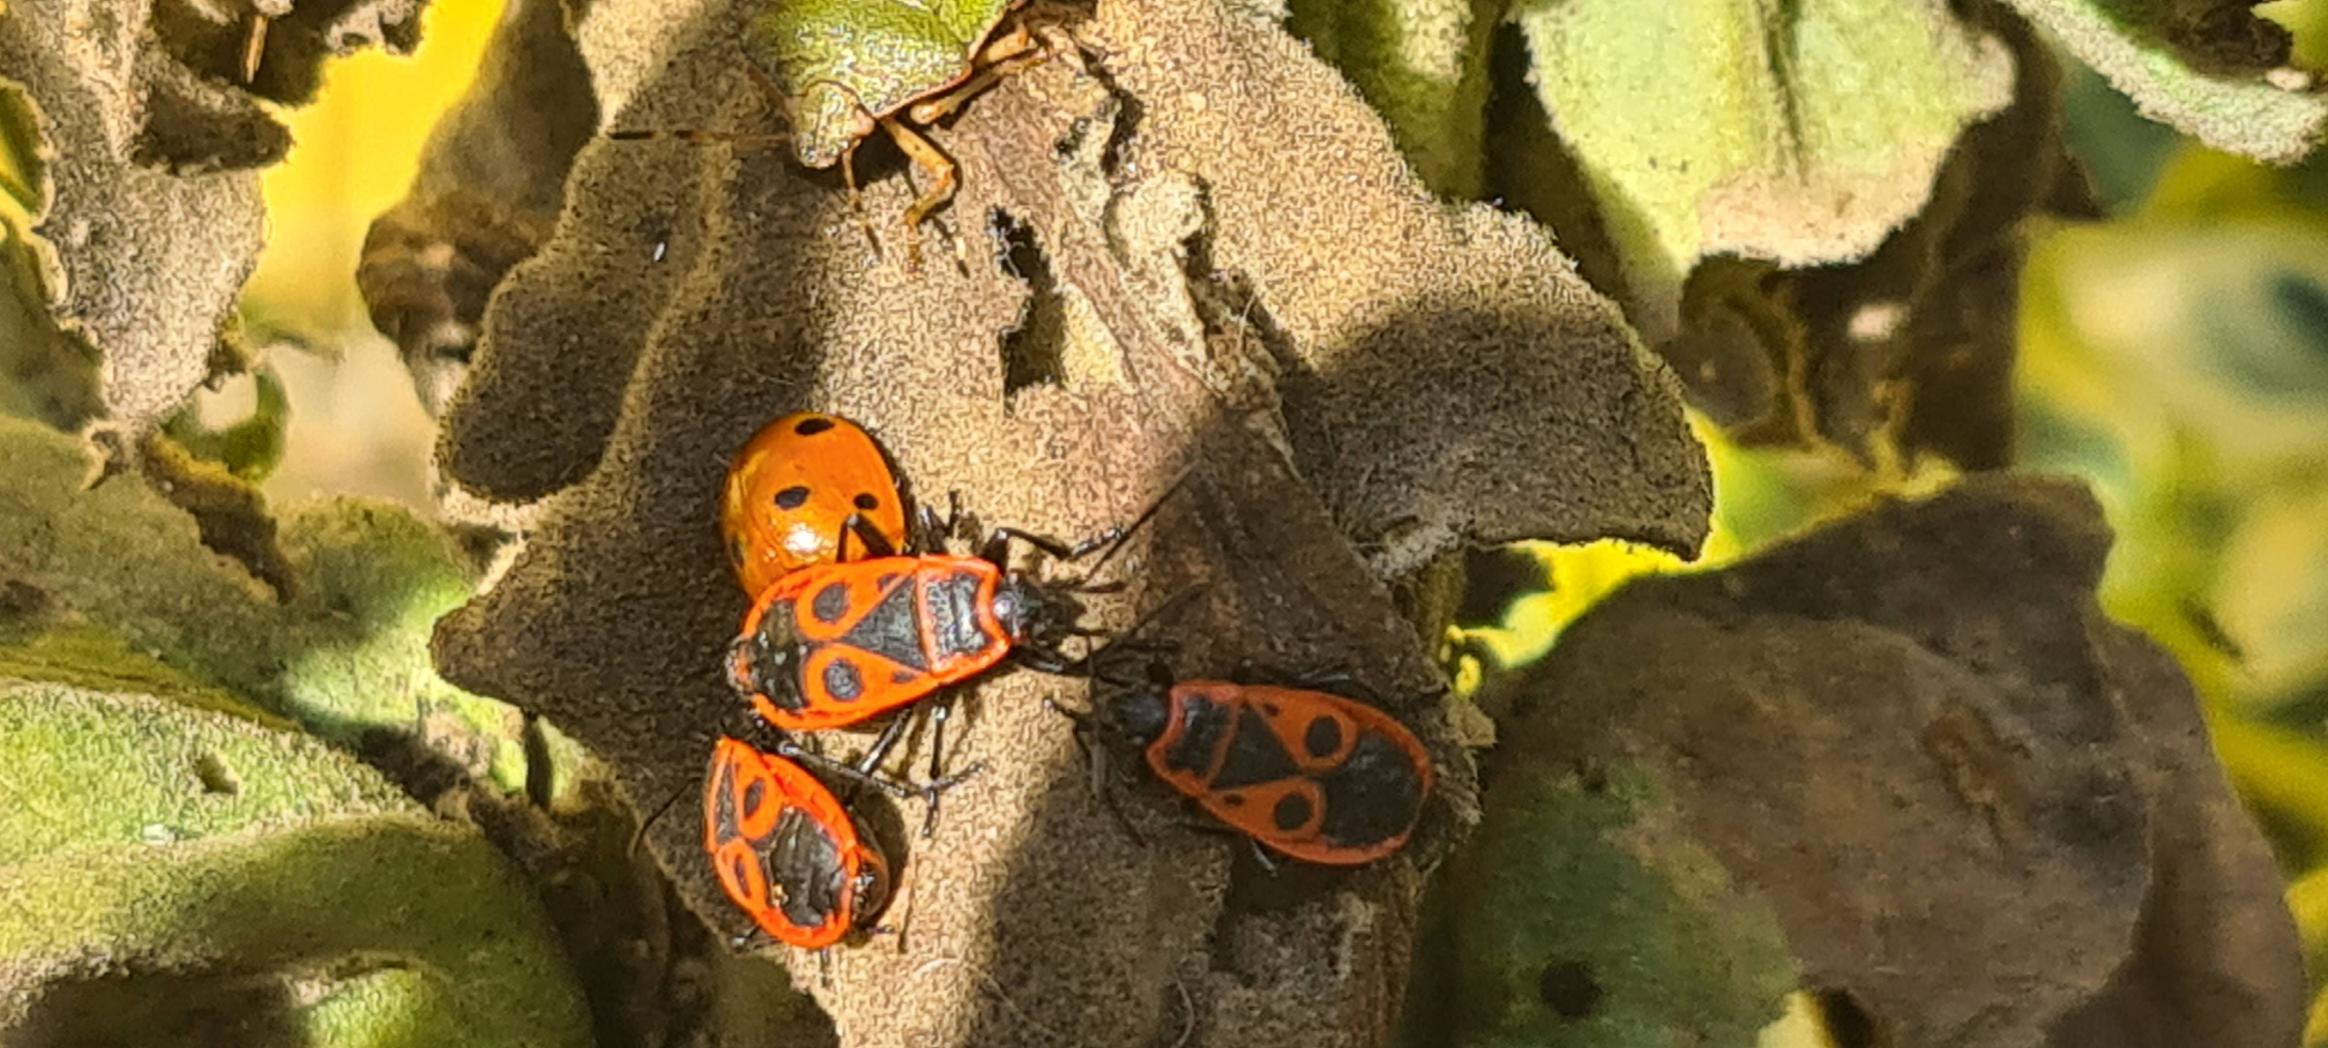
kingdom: Animalia
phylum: Arthropoda
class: Insecta
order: Hemiptera
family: Pyrrhocoridae
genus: Pyrrhocoris
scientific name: Pyrrhocoris apterus
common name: Ildtæge
